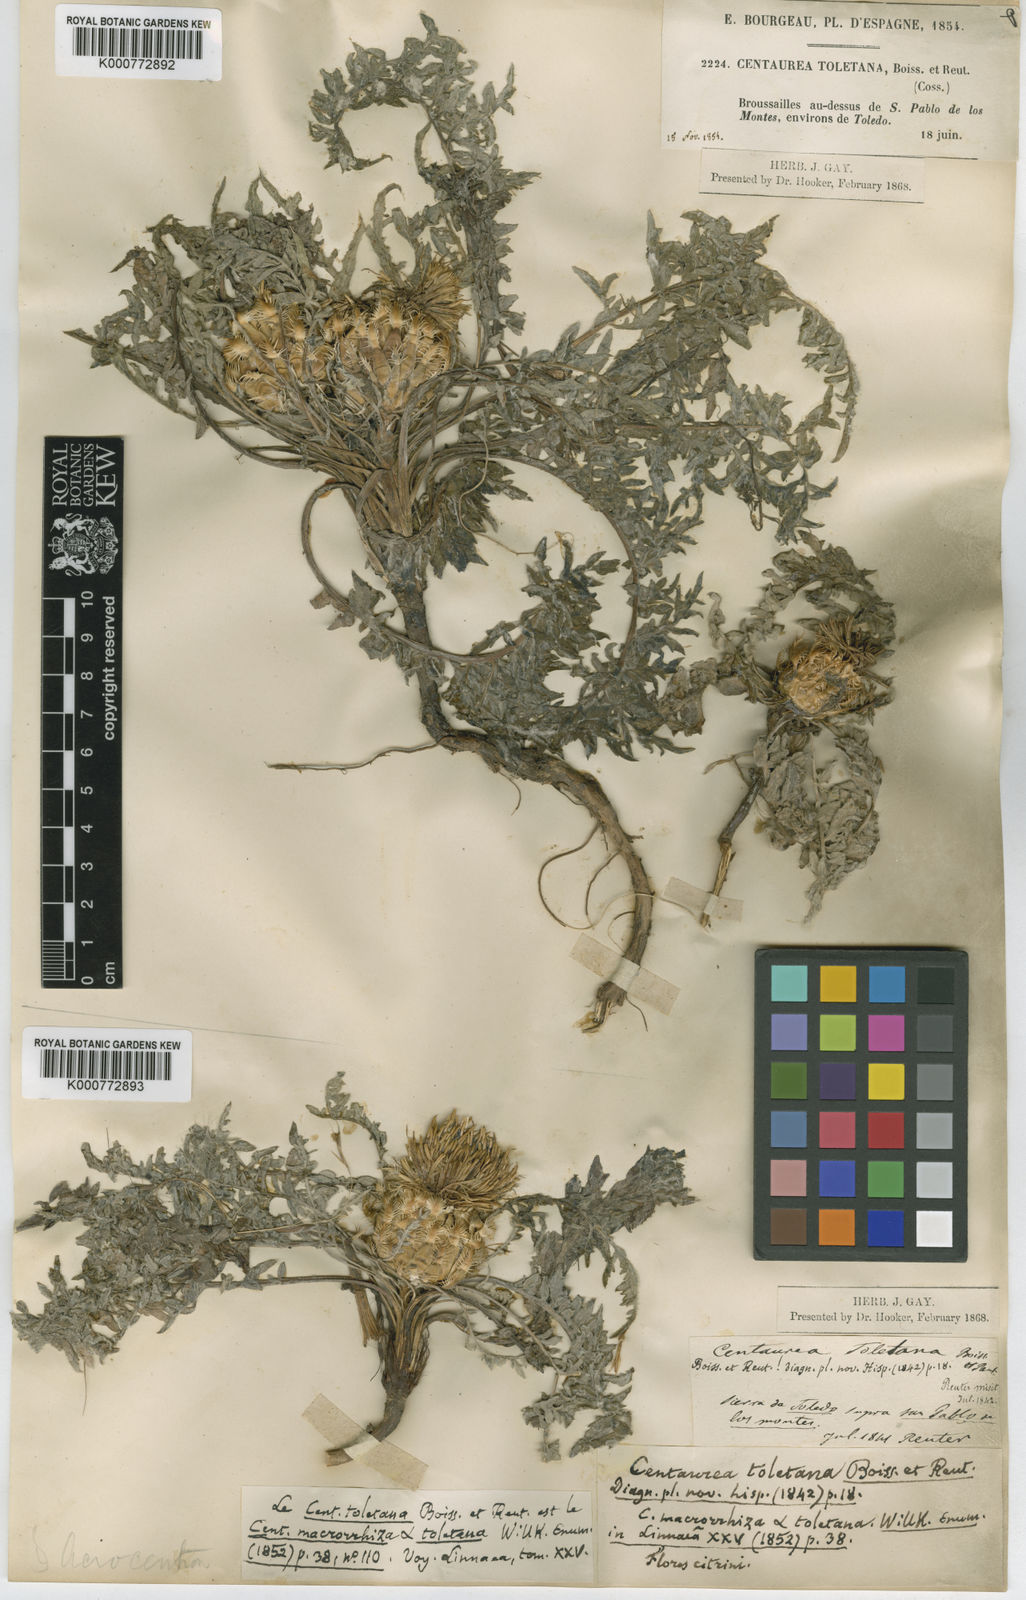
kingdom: Plantae
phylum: Tracheophyta
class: Magnoliopsida
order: Asterales
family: Asteraceae
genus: Centaurea
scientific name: Centaurea toletana
